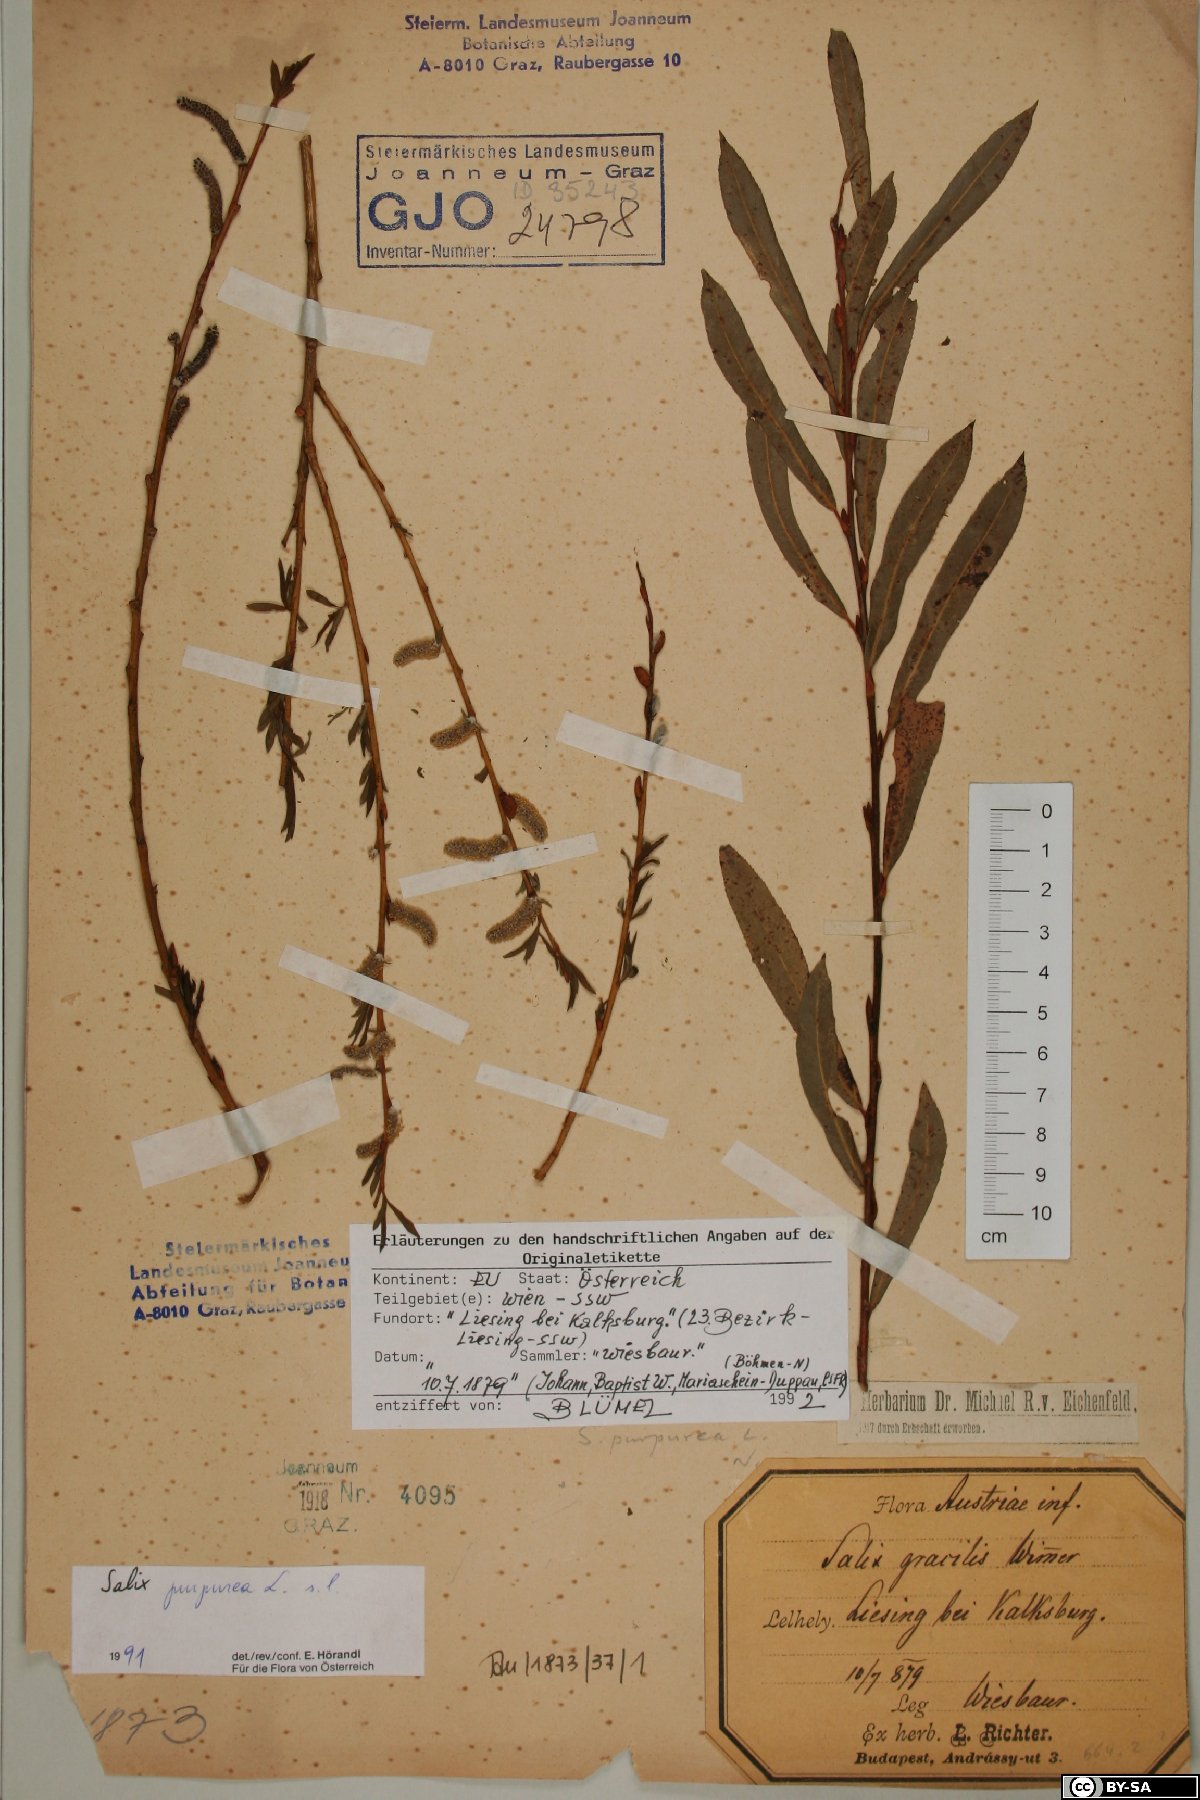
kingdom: Plantae
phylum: Tracheophyta
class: Magnoliopsida
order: Malpighiales
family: Salicaceae
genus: Salix
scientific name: Salix purpurea
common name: Purple willow
